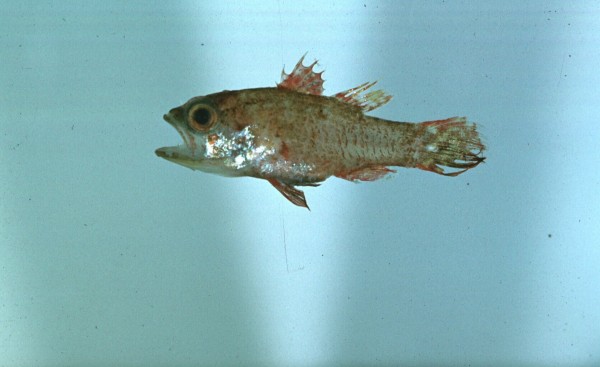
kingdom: Animalia
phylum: Chordata
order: Perciformes
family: Apogonidae
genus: Apogon
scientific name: Apogon
